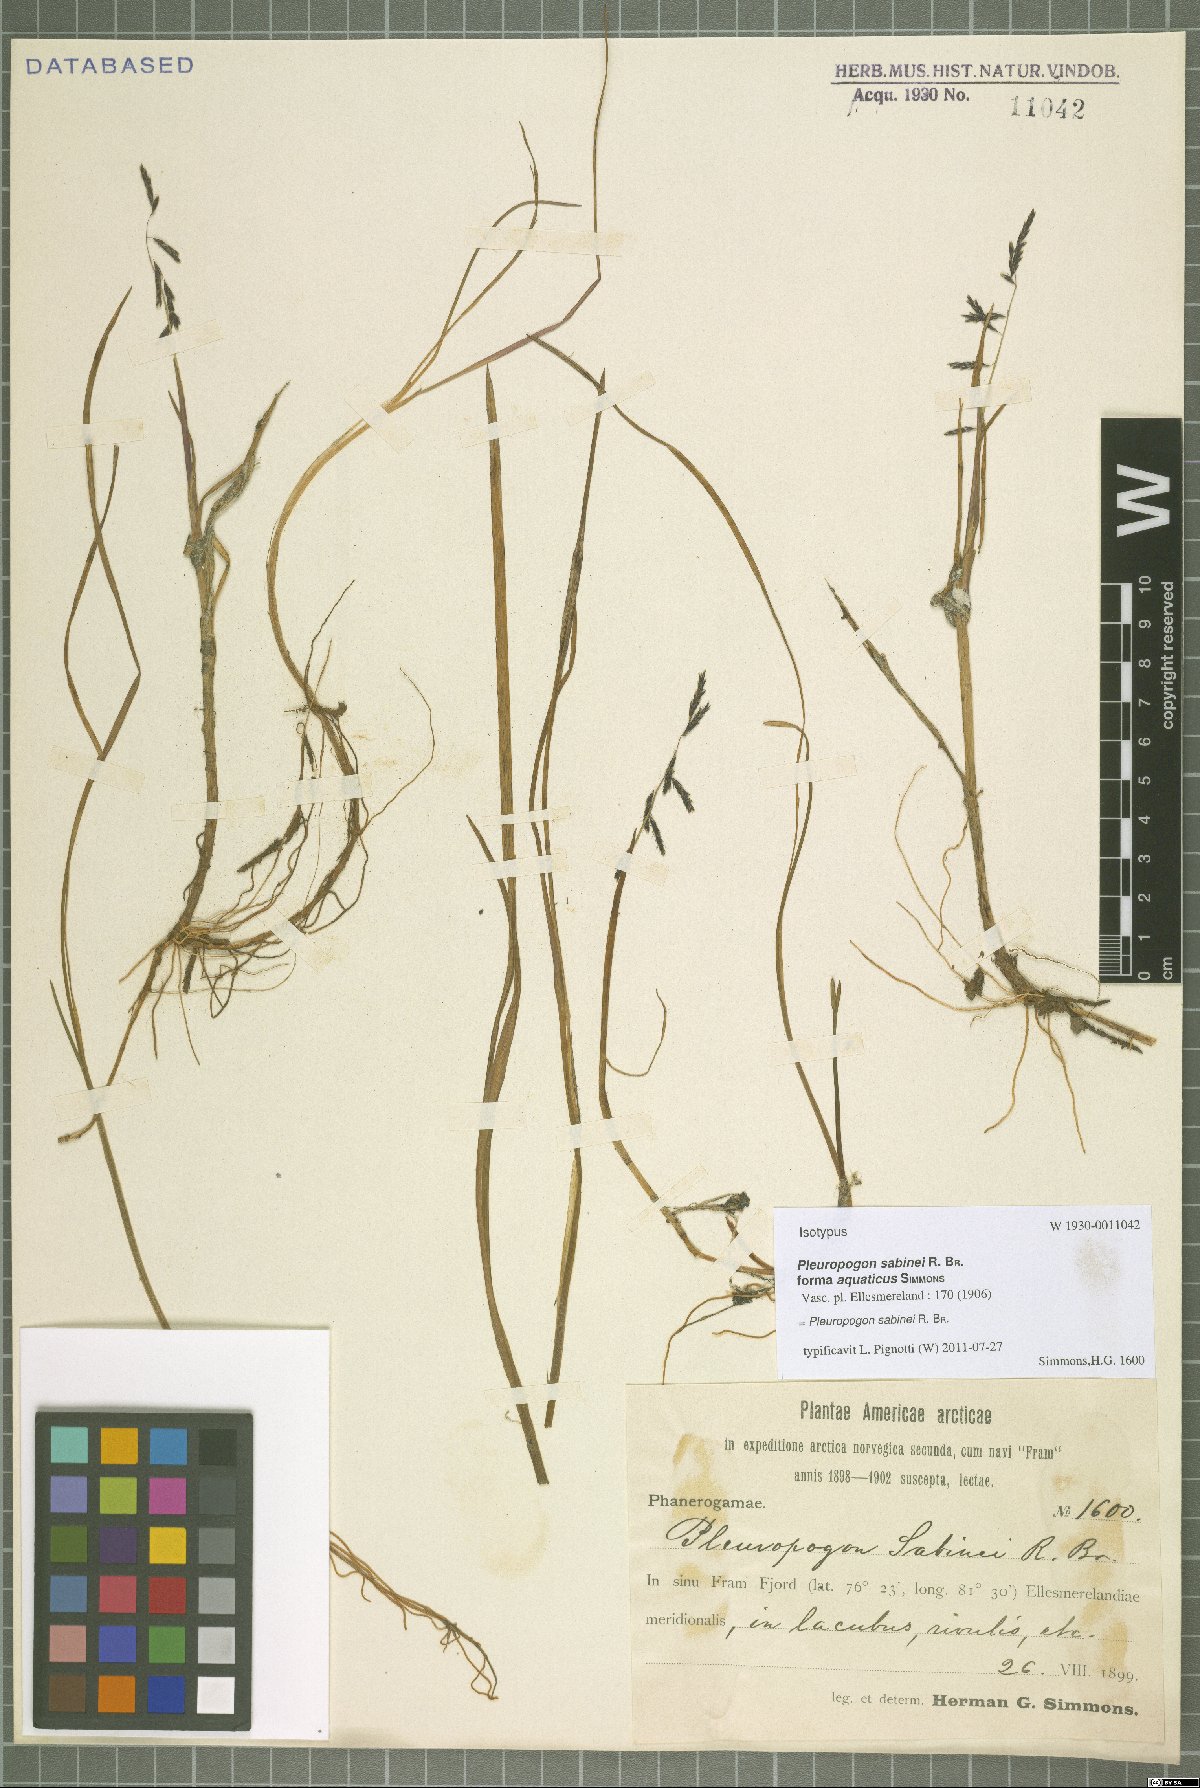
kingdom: Plantae
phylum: Tracheophyta
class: Liliopsida
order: Poales
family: Poaceae
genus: Pleuropogon
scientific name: Pleuropogon sabinei
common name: Sabine's false semaphoregrass
